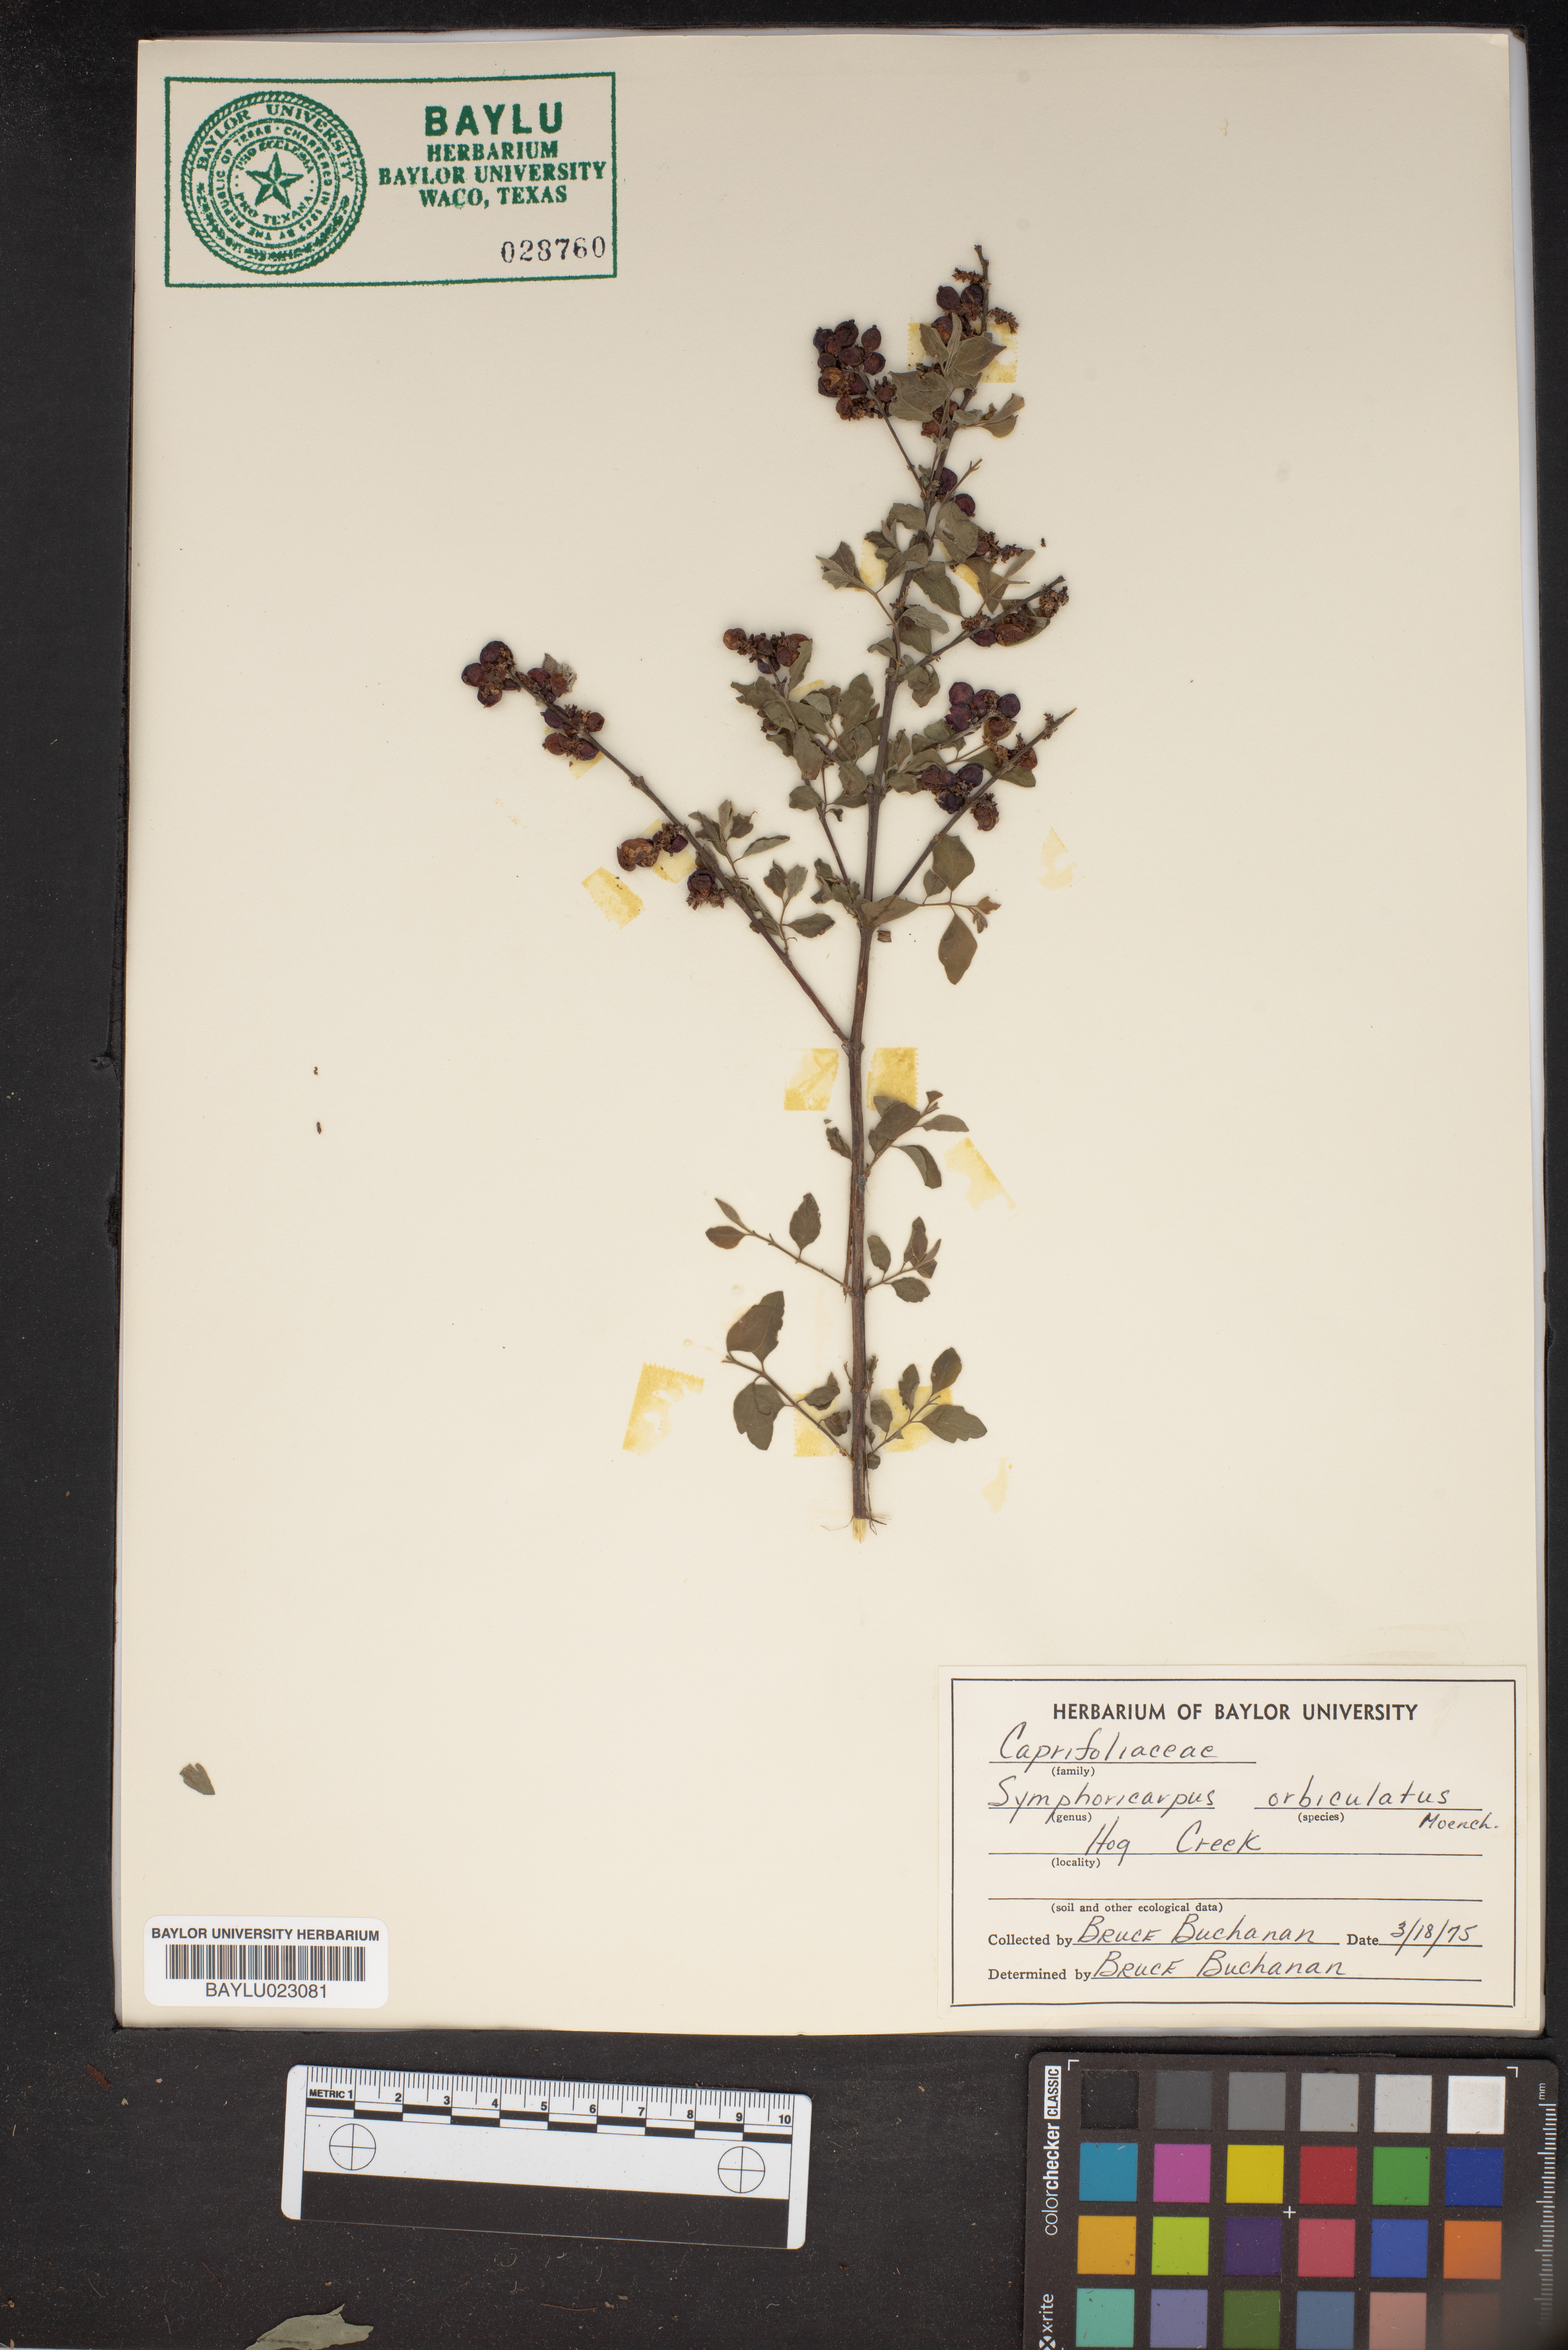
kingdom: Plantae
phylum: Tracheophyta
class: Magnoliopsida
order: Dipsacales
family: Caprifoliaceae
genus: Symphoricarpos
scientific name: Symphoricarpos orbiculatus
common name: Coralberry
